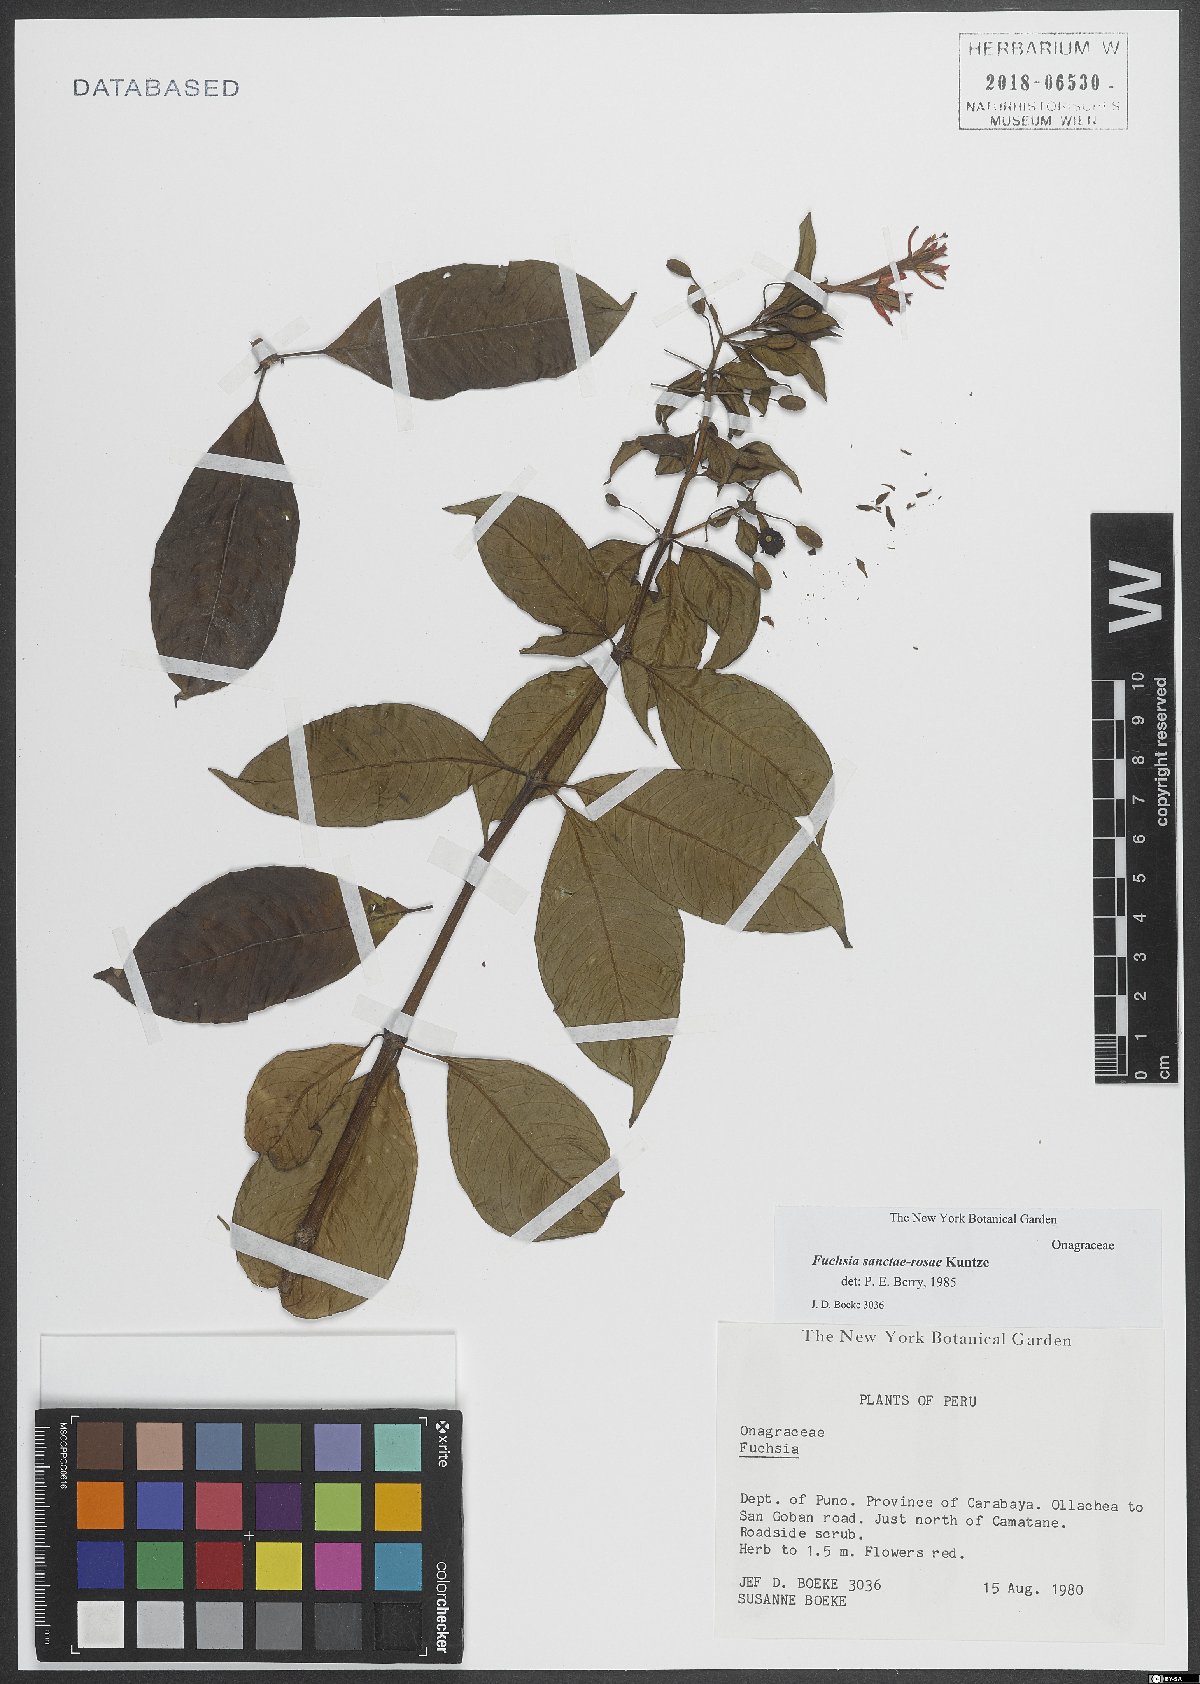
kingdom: Plantae
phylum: Tracheophyta
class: Magnoliopsida
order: Myrtales
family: Onagraceae
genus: Fuchsia
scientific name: Fuchsia sanctae-rosae
